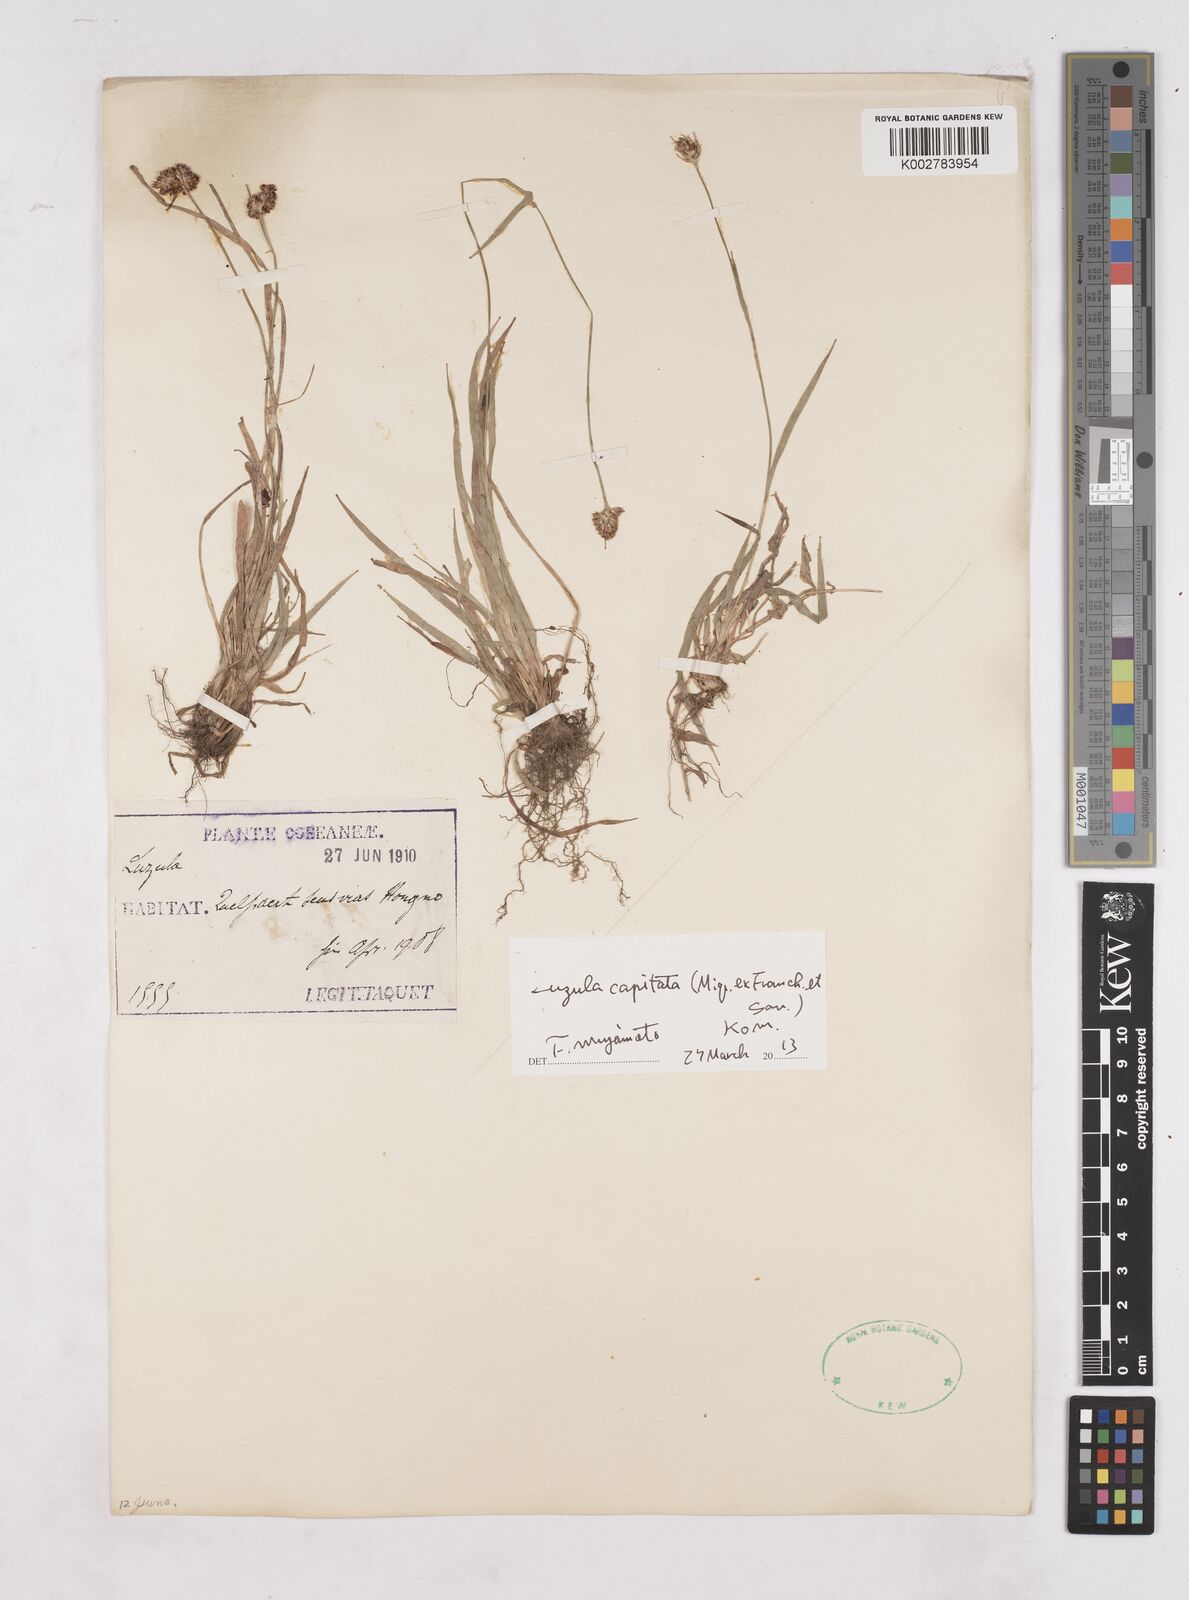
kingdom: Plantae
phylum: Tracheophyta
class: Liliopsida
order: Poales
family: Juncaceae
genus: Luzula
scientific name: Luzula capitata
